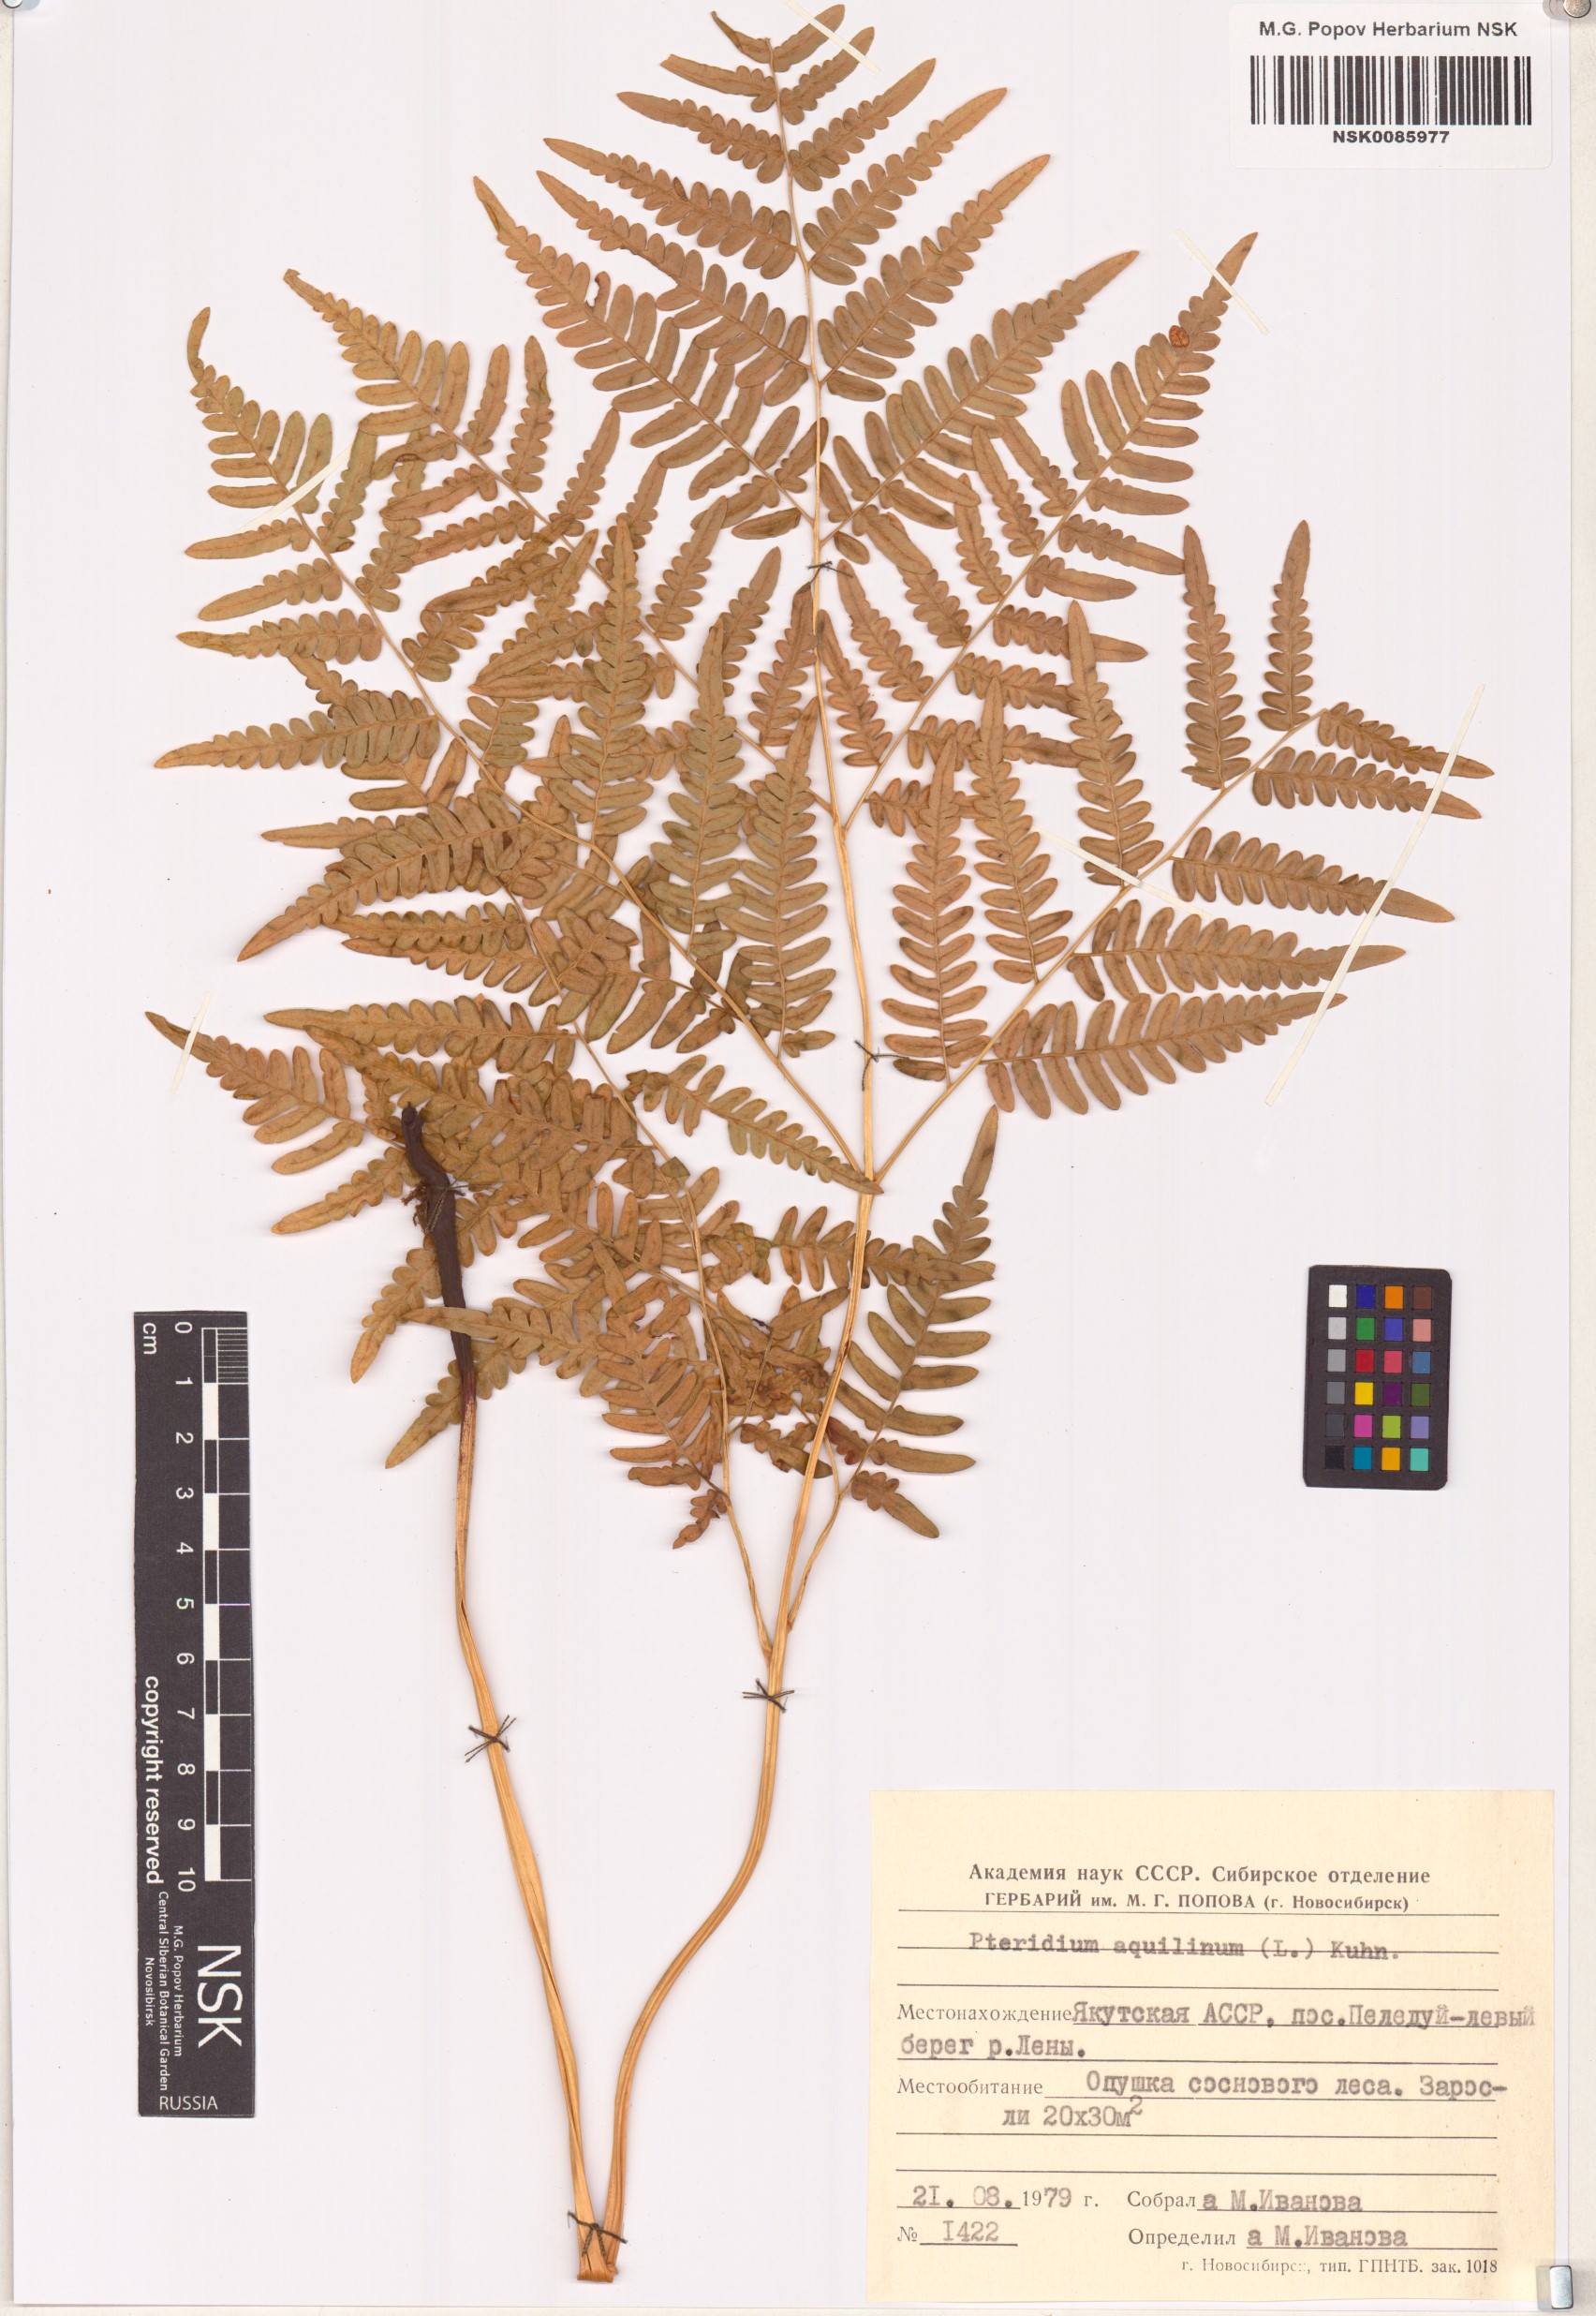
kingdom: Plantae
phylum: Tracheophyta
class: Polypodiopsida
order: Polypodiales
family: Dennstaedtiaceae
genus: Pteridium
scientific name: Pteridium aquilinum
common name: Bracken
